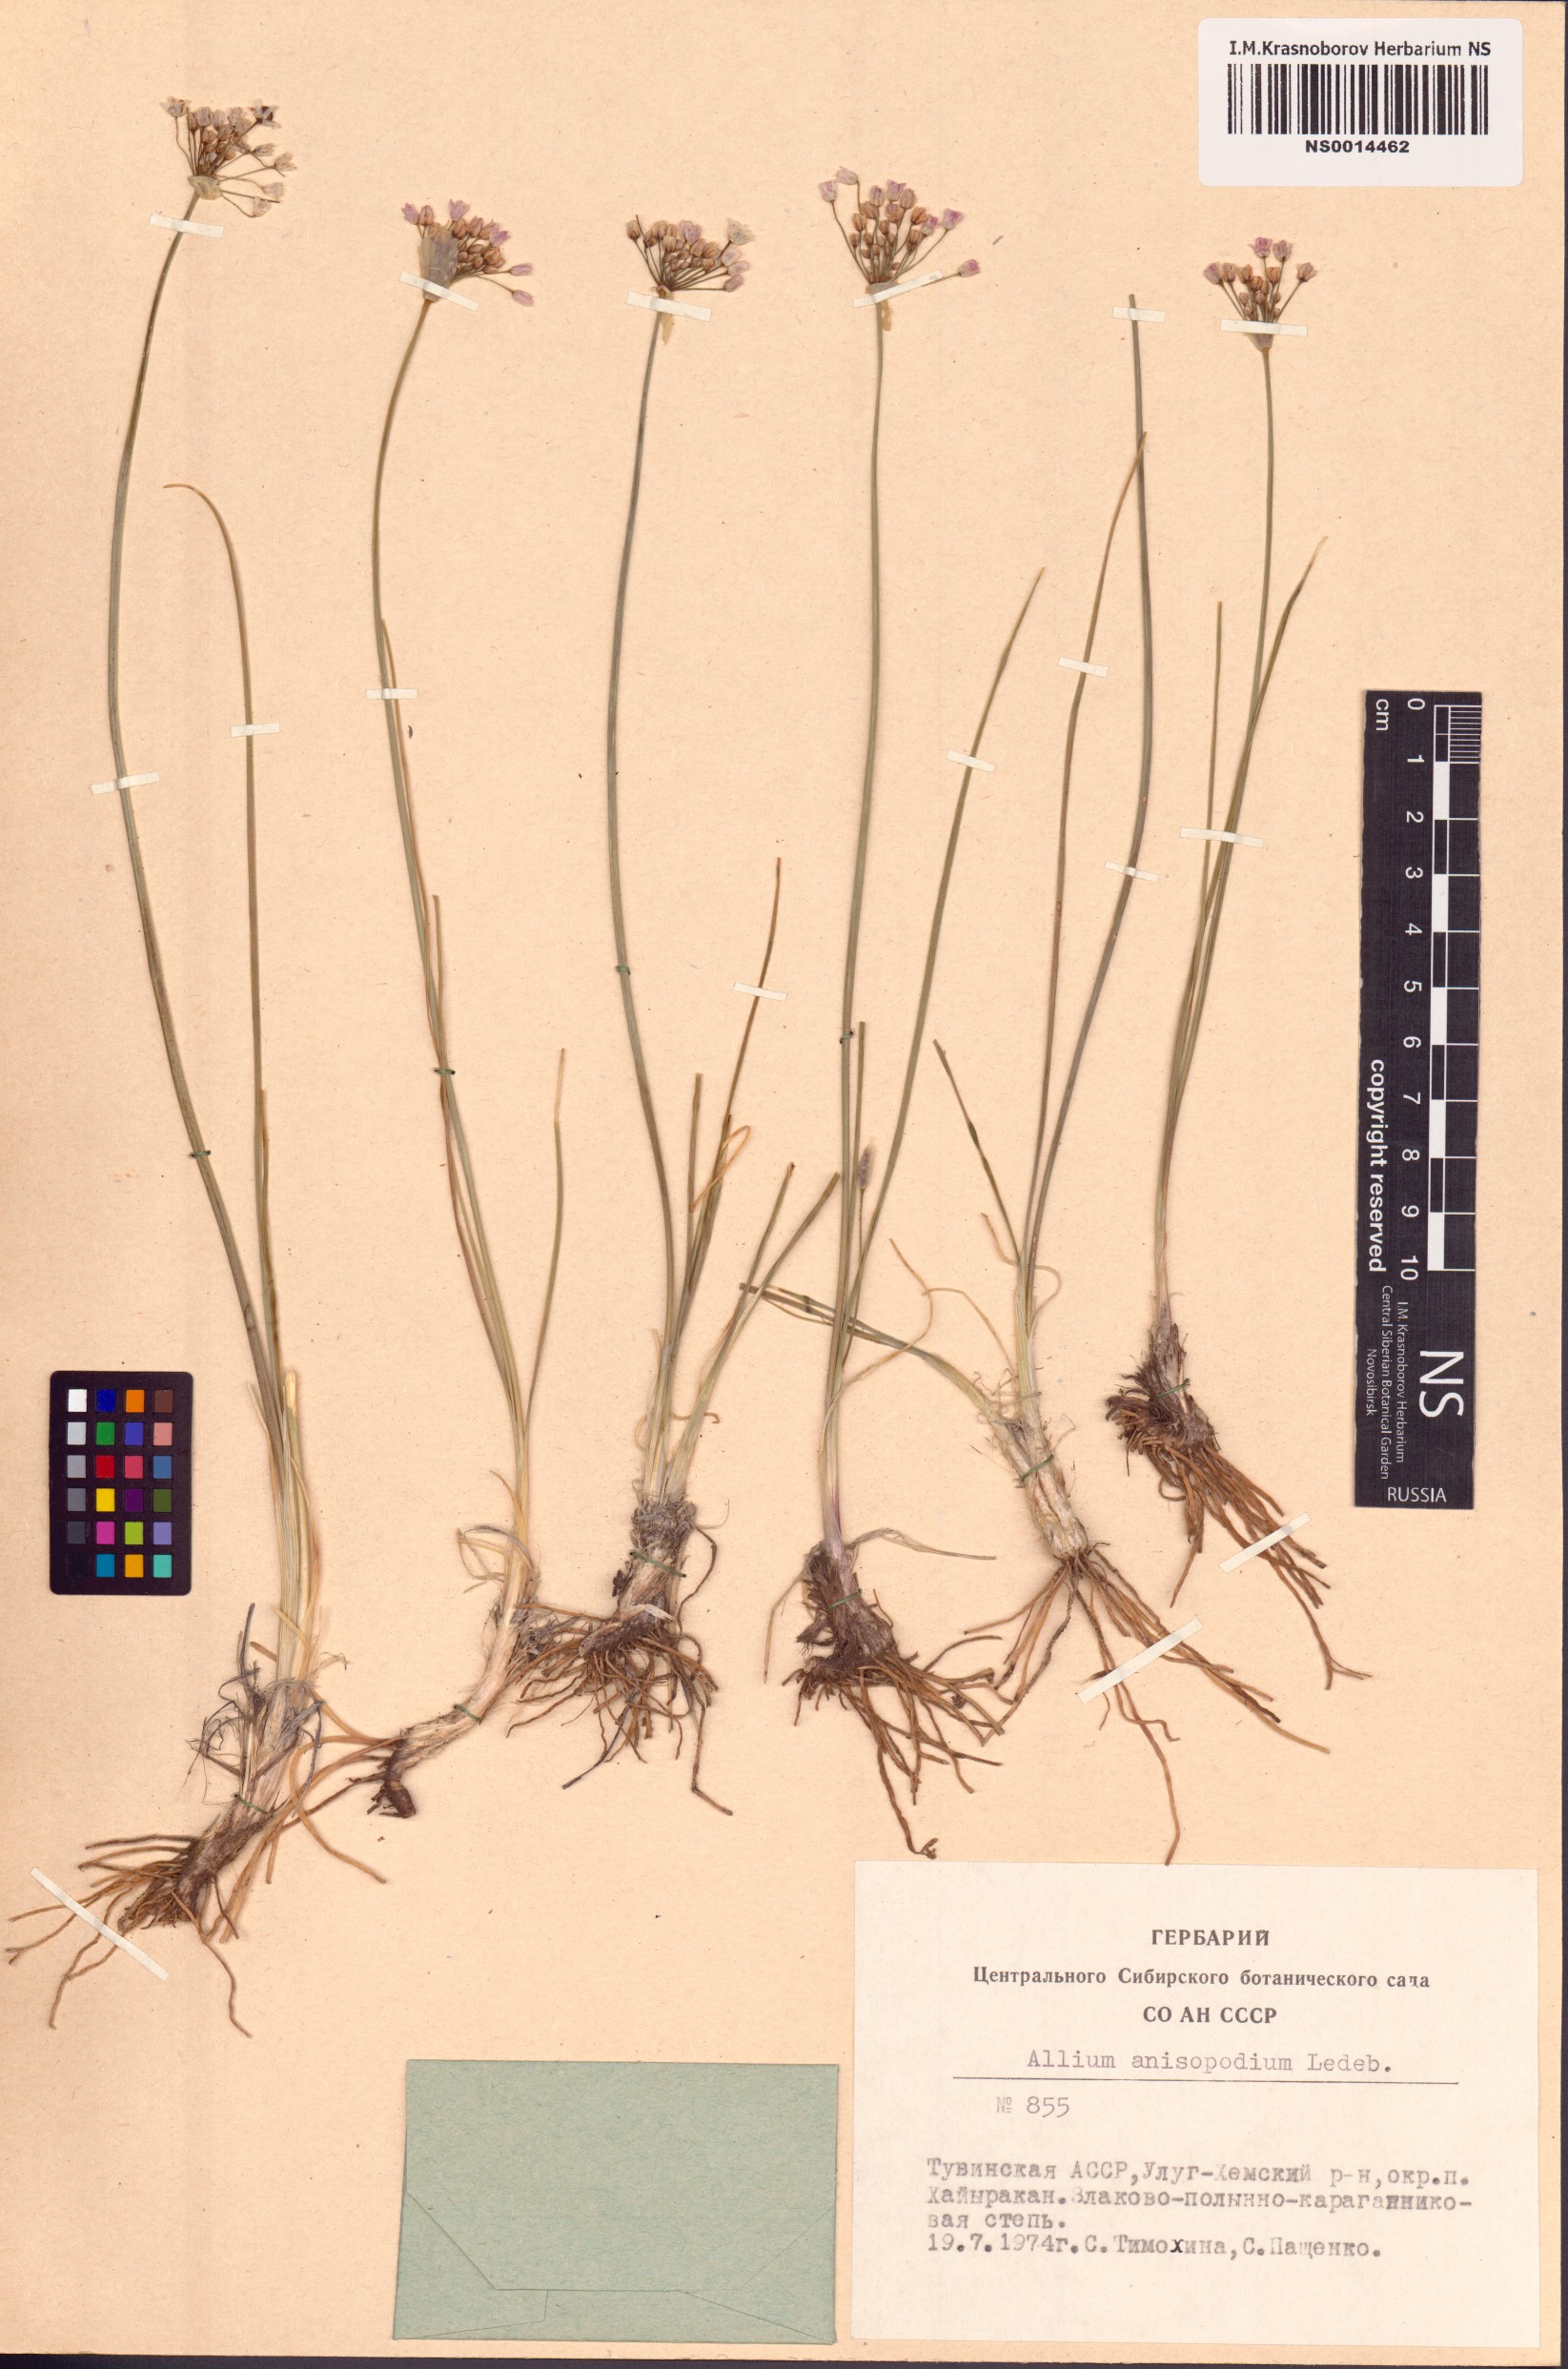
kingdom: Plantae
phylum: Tracheophyta
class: Liliopsida
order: Asparagales
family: Amaryllidaceae
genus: Allium
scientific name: Allium anisopodium
